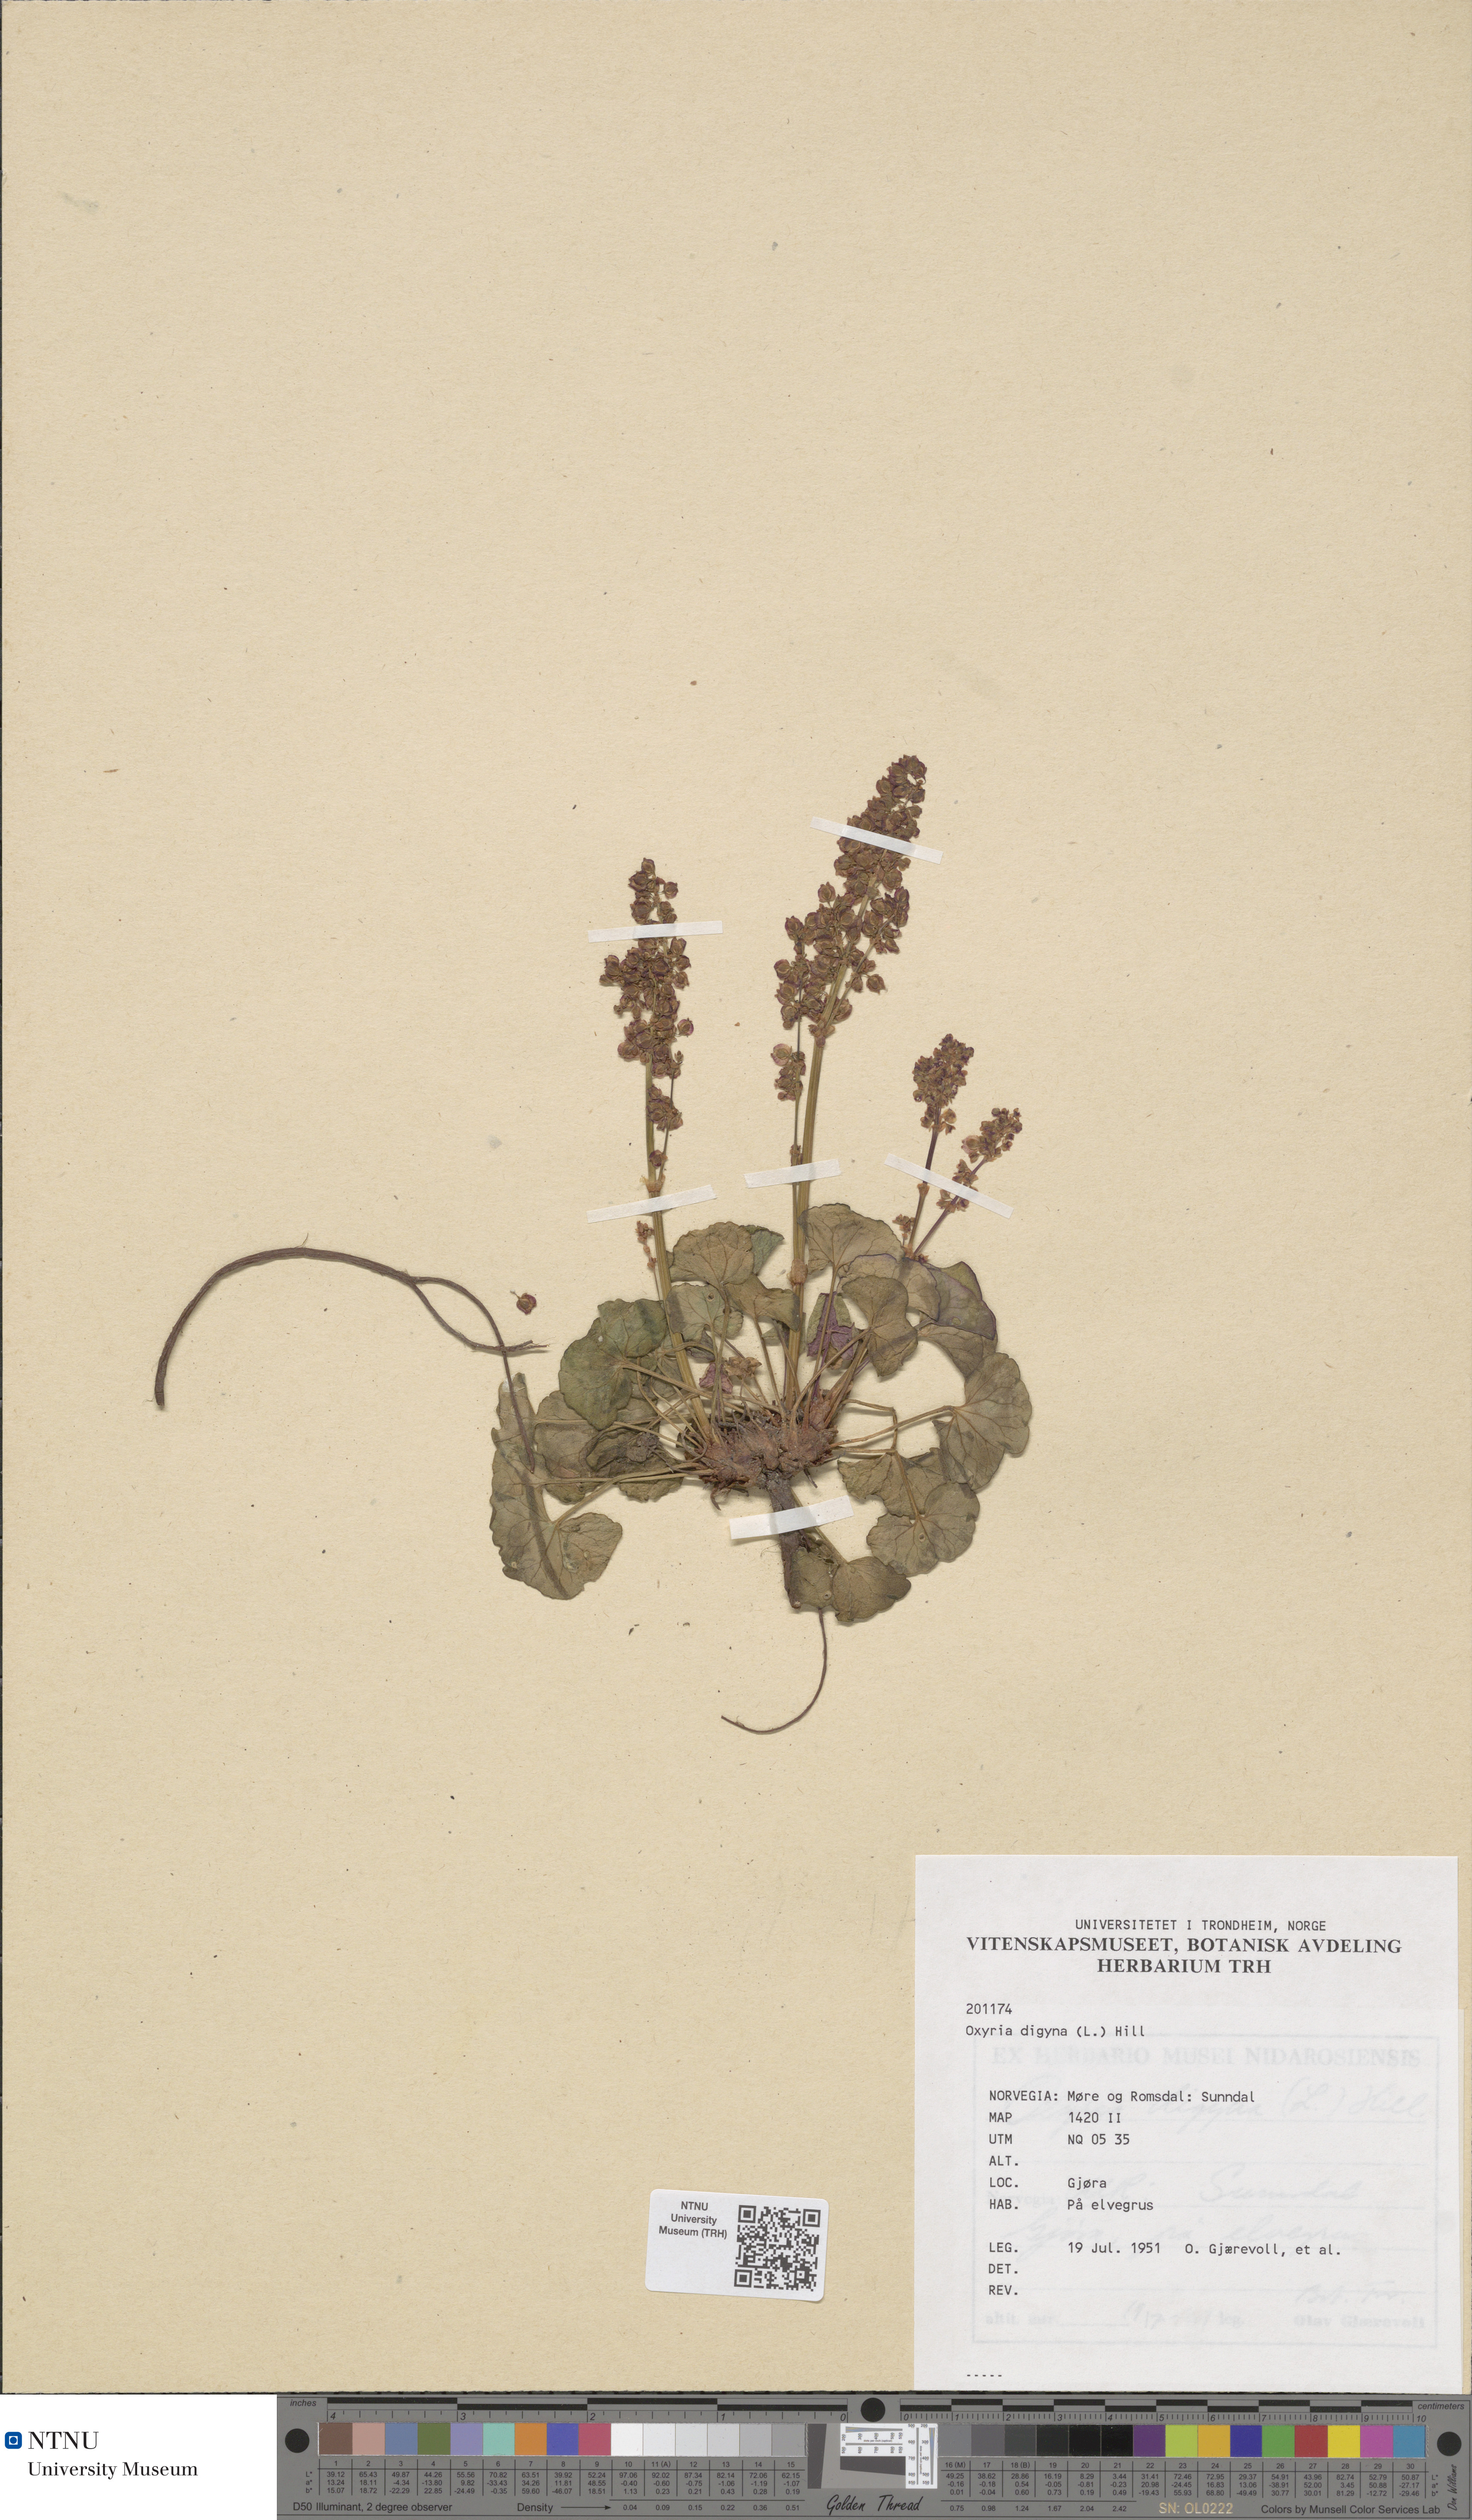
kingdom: Plantae
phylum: Tracheophyta
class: Magnoliopsida
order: Caryophyllales
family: Polygonaceae
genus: Oxyria
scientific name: Oxyria digyna
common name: Alpine mountain-sorrel
